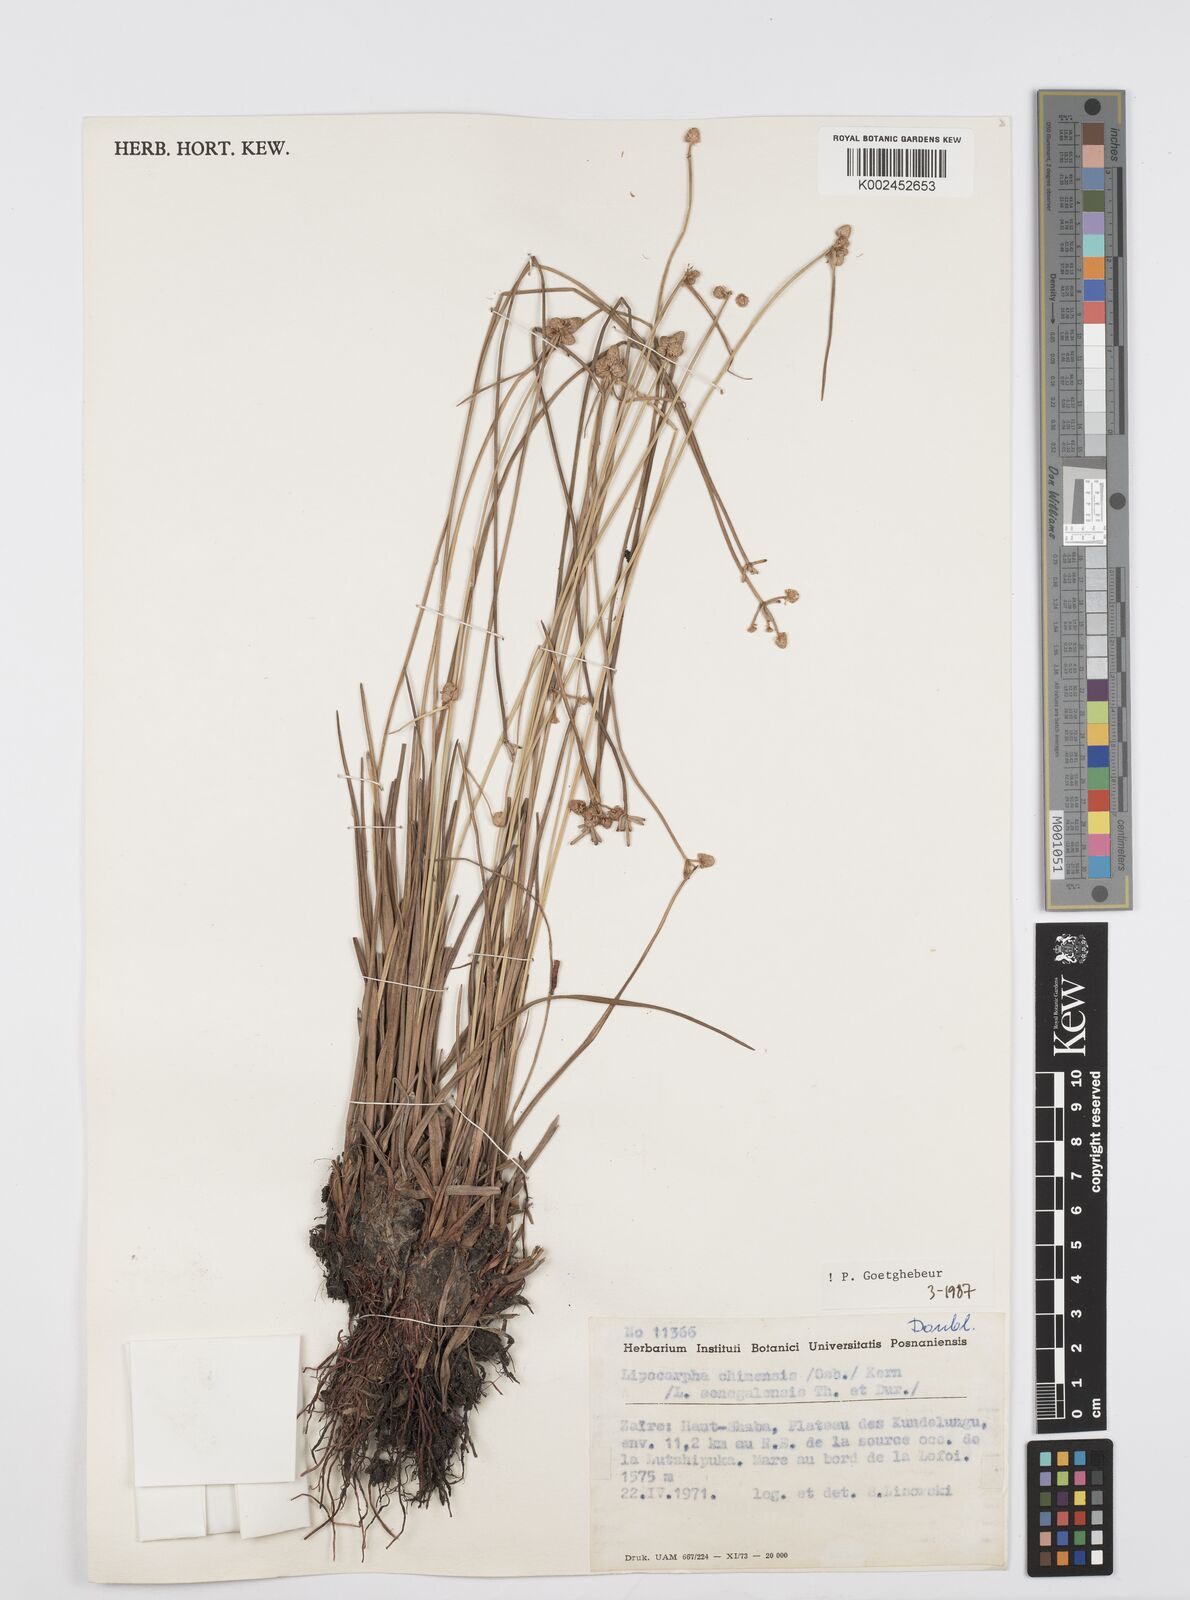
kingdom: Plantae
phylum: Tracheophyta
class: Liliopsida
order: Poales
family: Cyperaceae
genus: Cyperus
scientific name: Cyperus albescens
